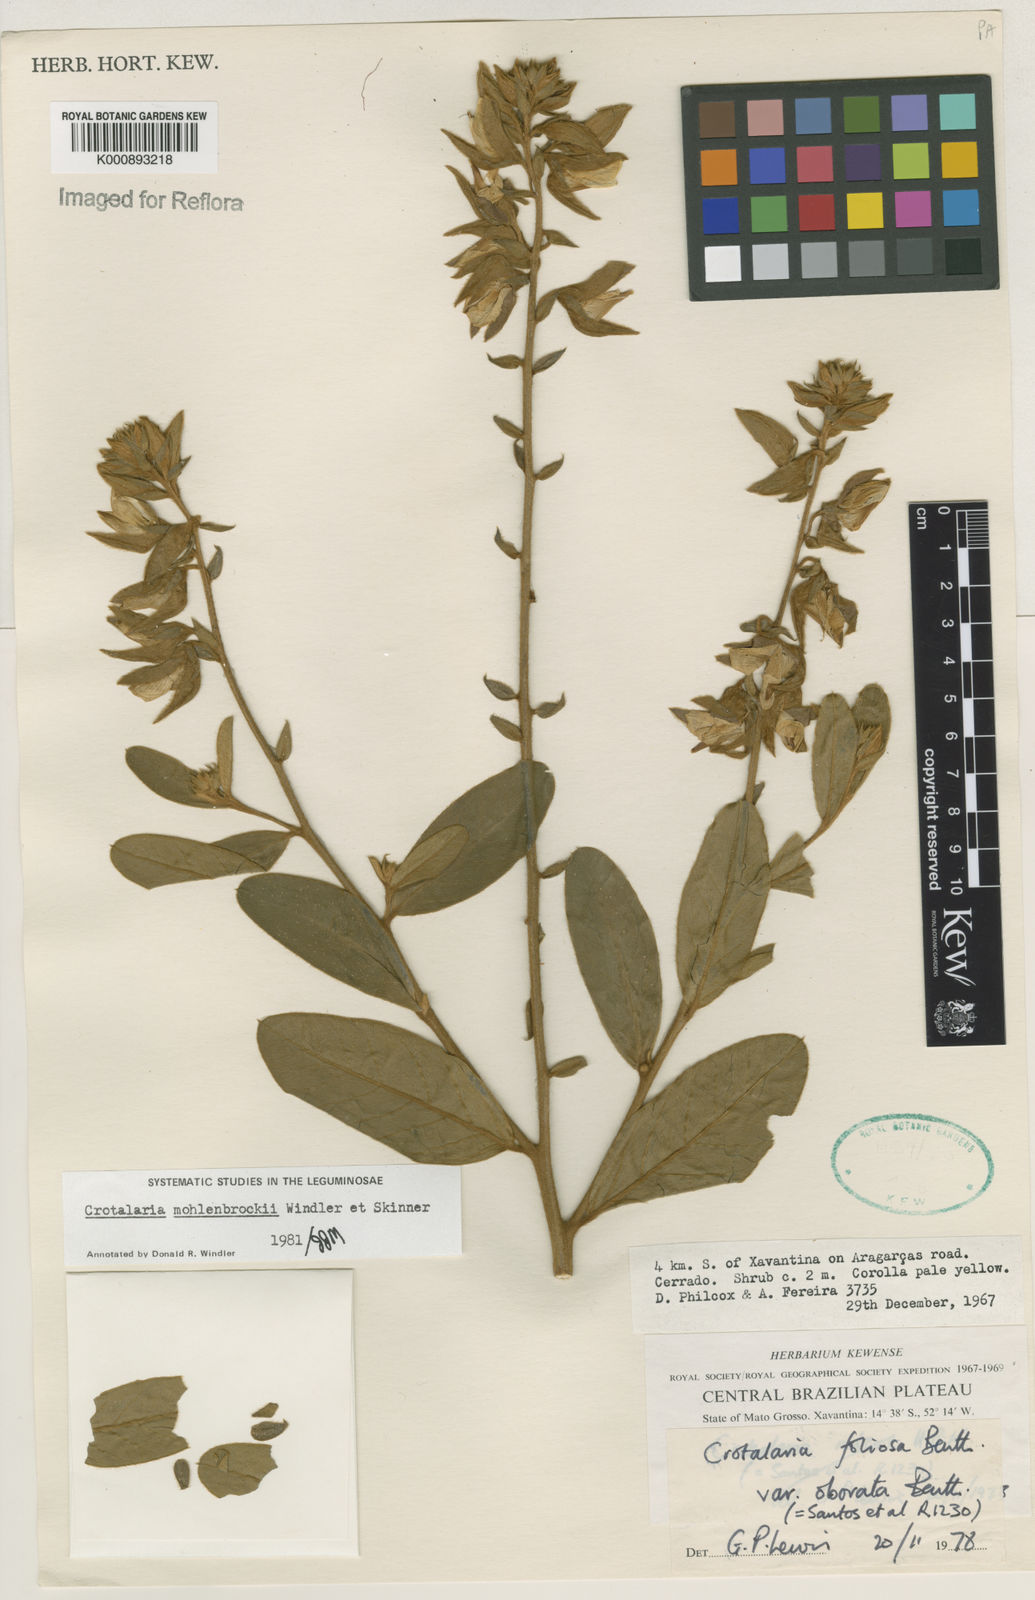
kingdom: Plantae
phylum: Tracheophyta
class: Magnoliopsida
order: Fabales
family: Fabaceae
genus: Crotalaria
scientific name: Crotalaria martiana
